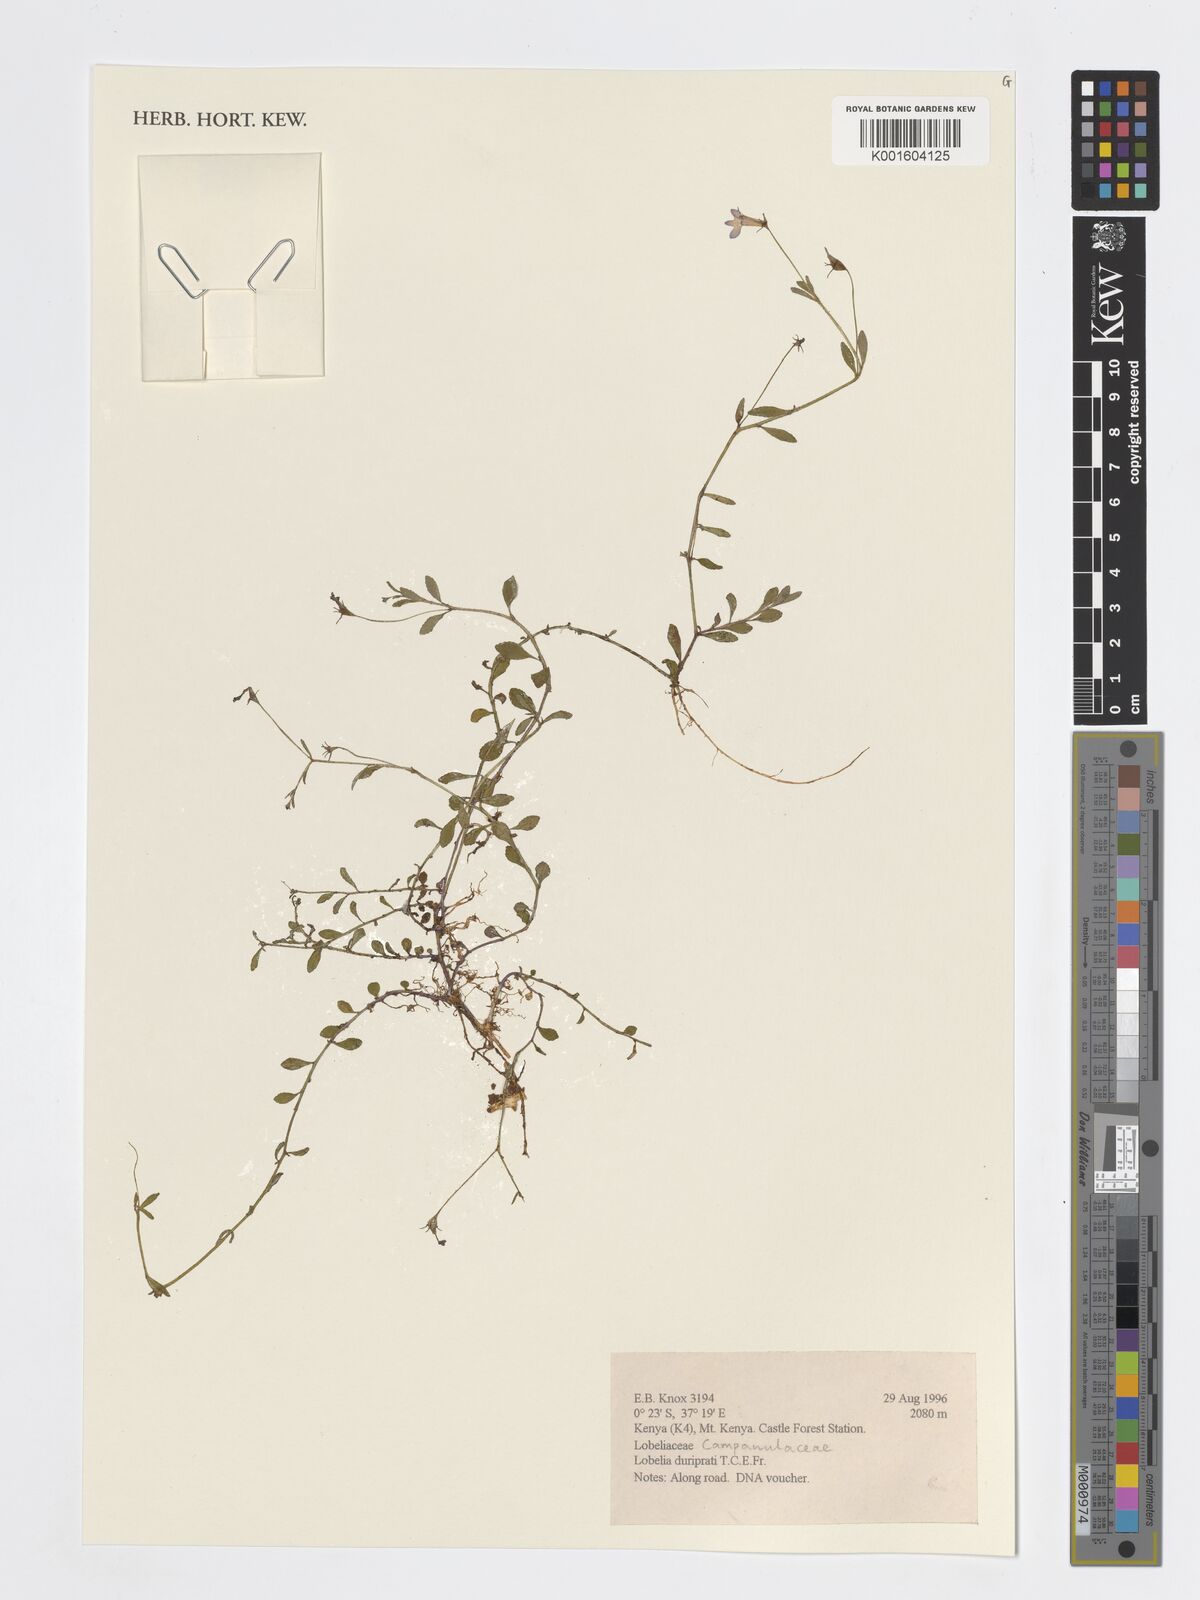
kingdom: Plantae
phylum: Tracheophyta
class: Magnoliopsida
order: Asterales
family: Campanulaceae
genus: Lobelia
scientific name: Lobelia duriprati
